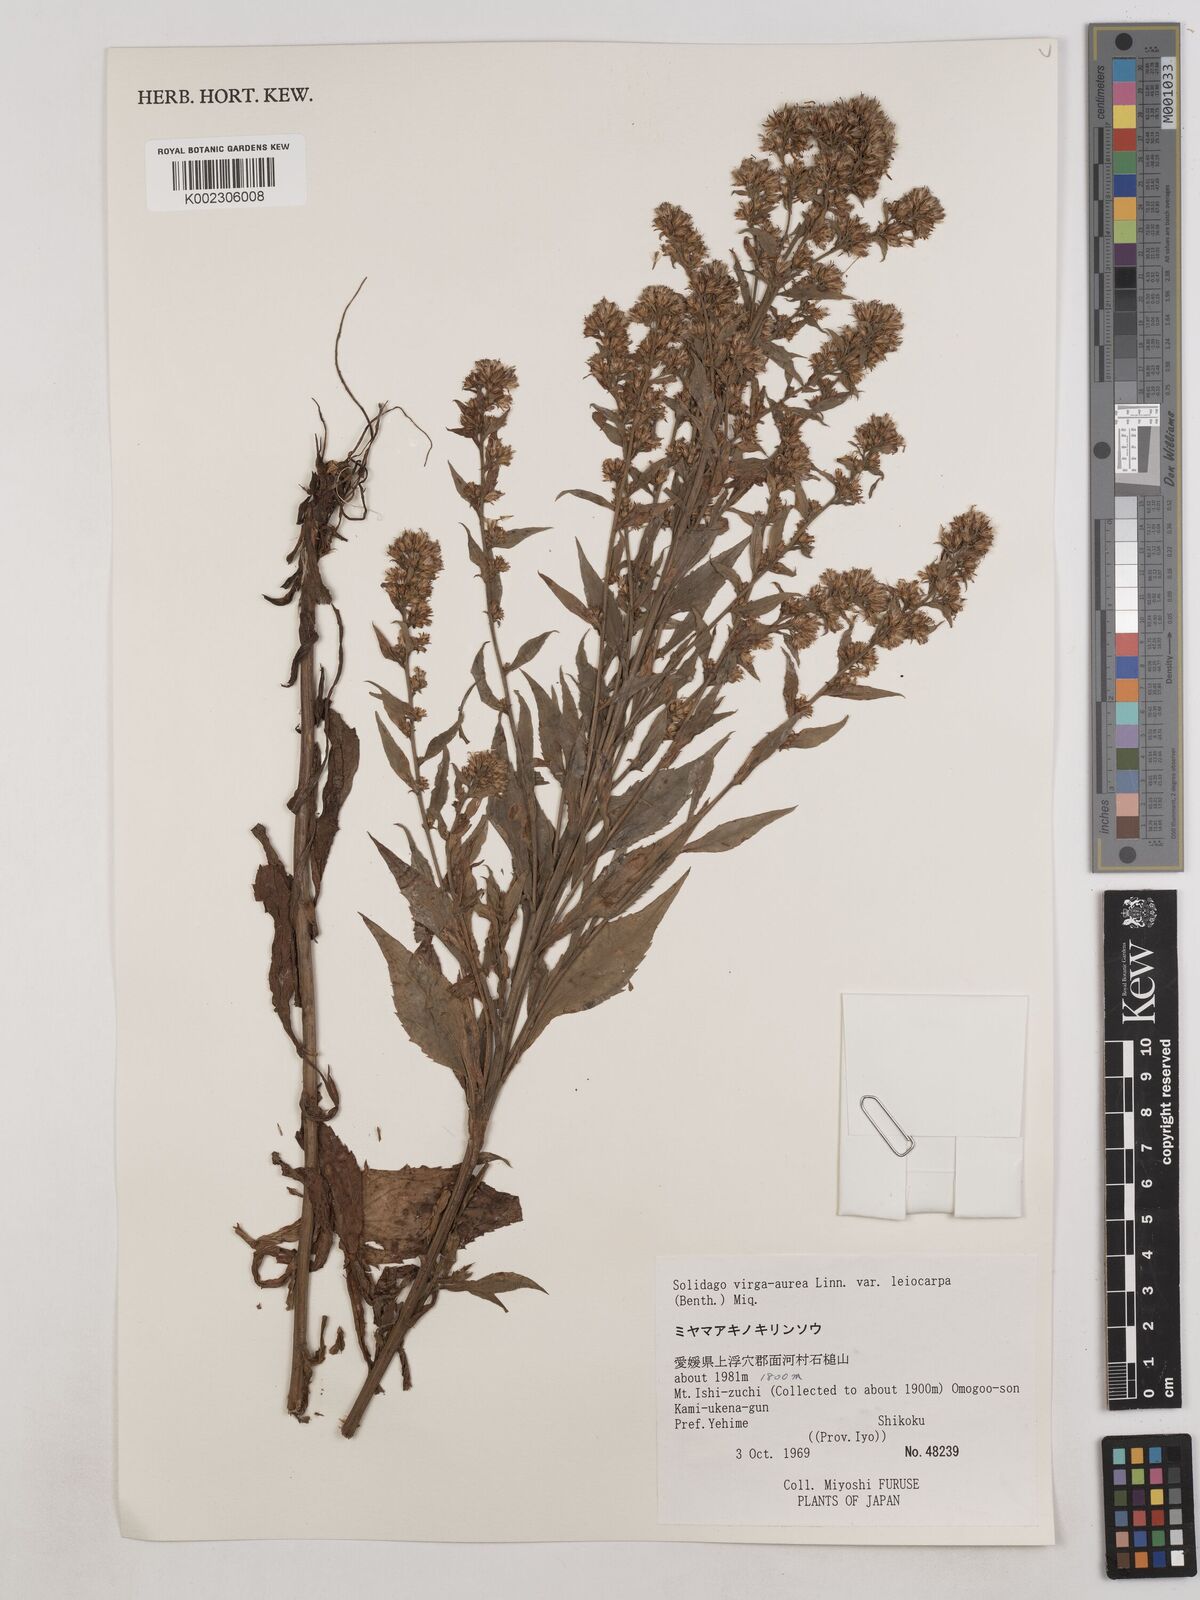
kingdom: Plantae
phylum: Tracheophyta
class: Magnoliopsida
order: Asterales
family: Asteraceae
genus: Solidago
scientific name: Solidago decurrens
